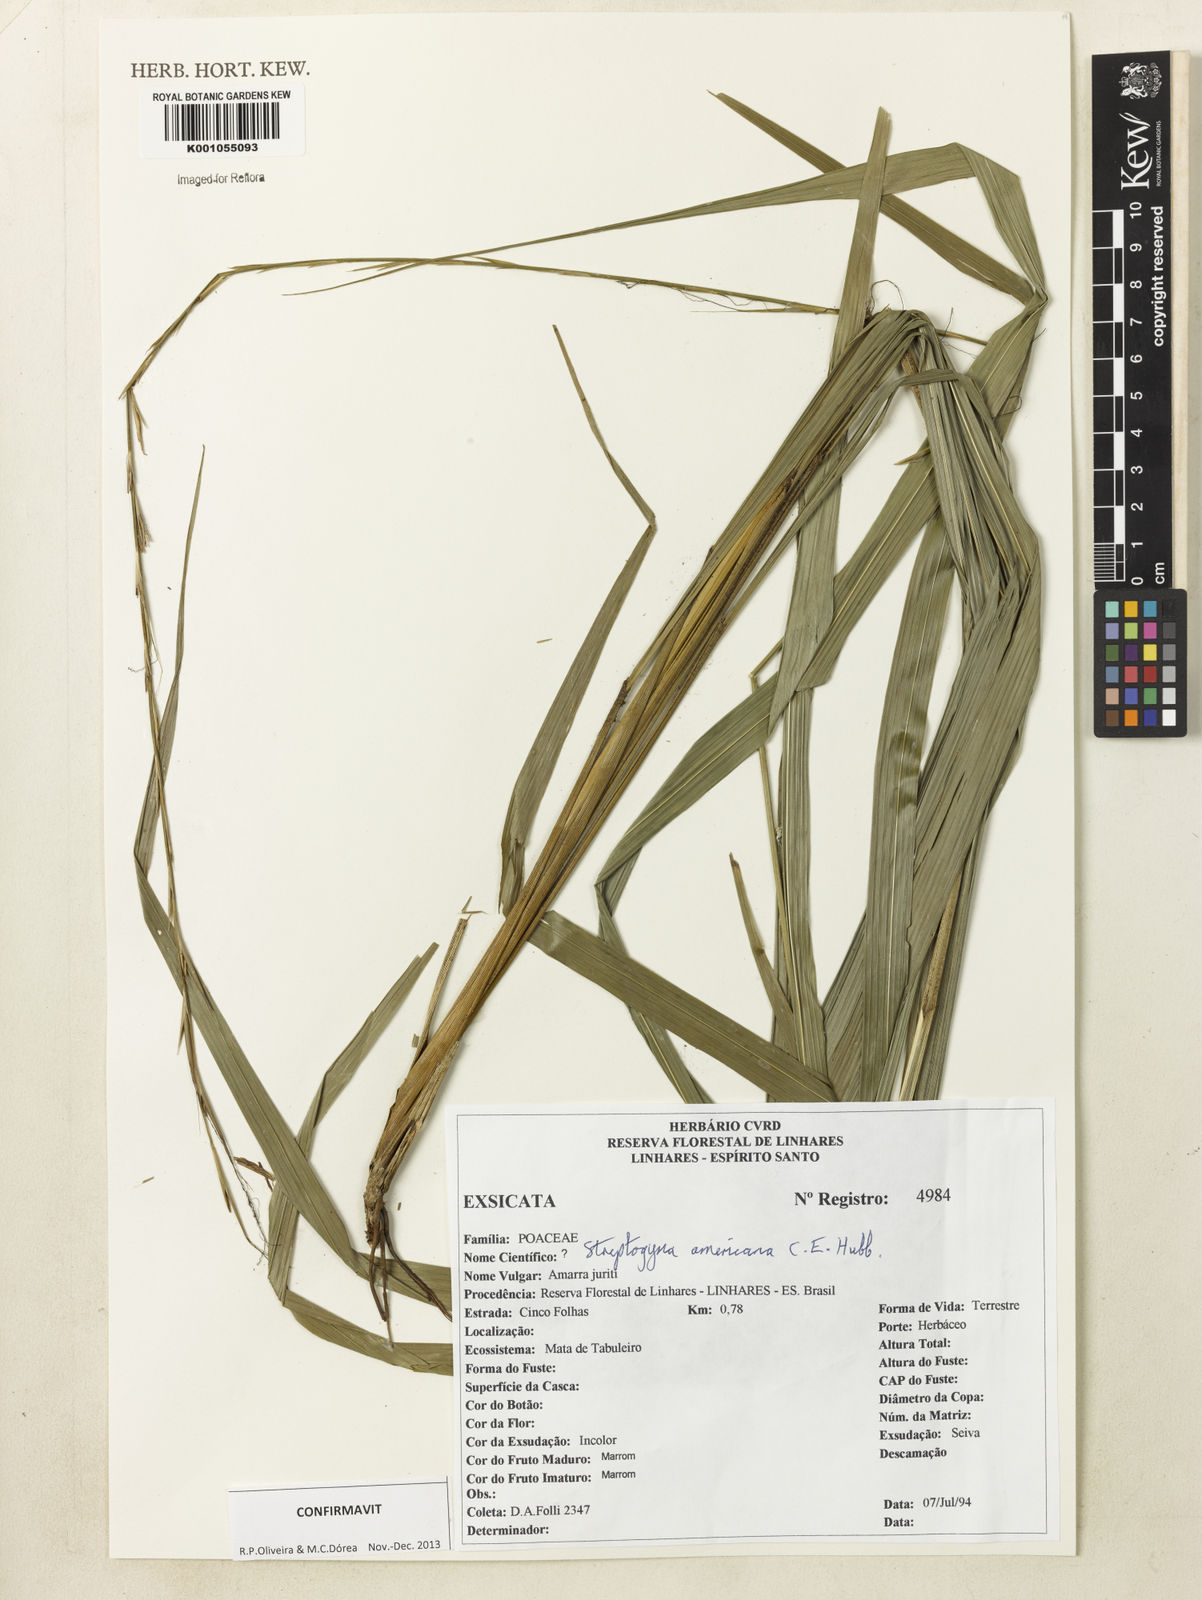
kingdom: Plantae
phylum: Tracheophyta
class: Liliopsida
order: Poales
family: Poaceae
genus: Streptogyna
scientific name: Streptogyna americana
